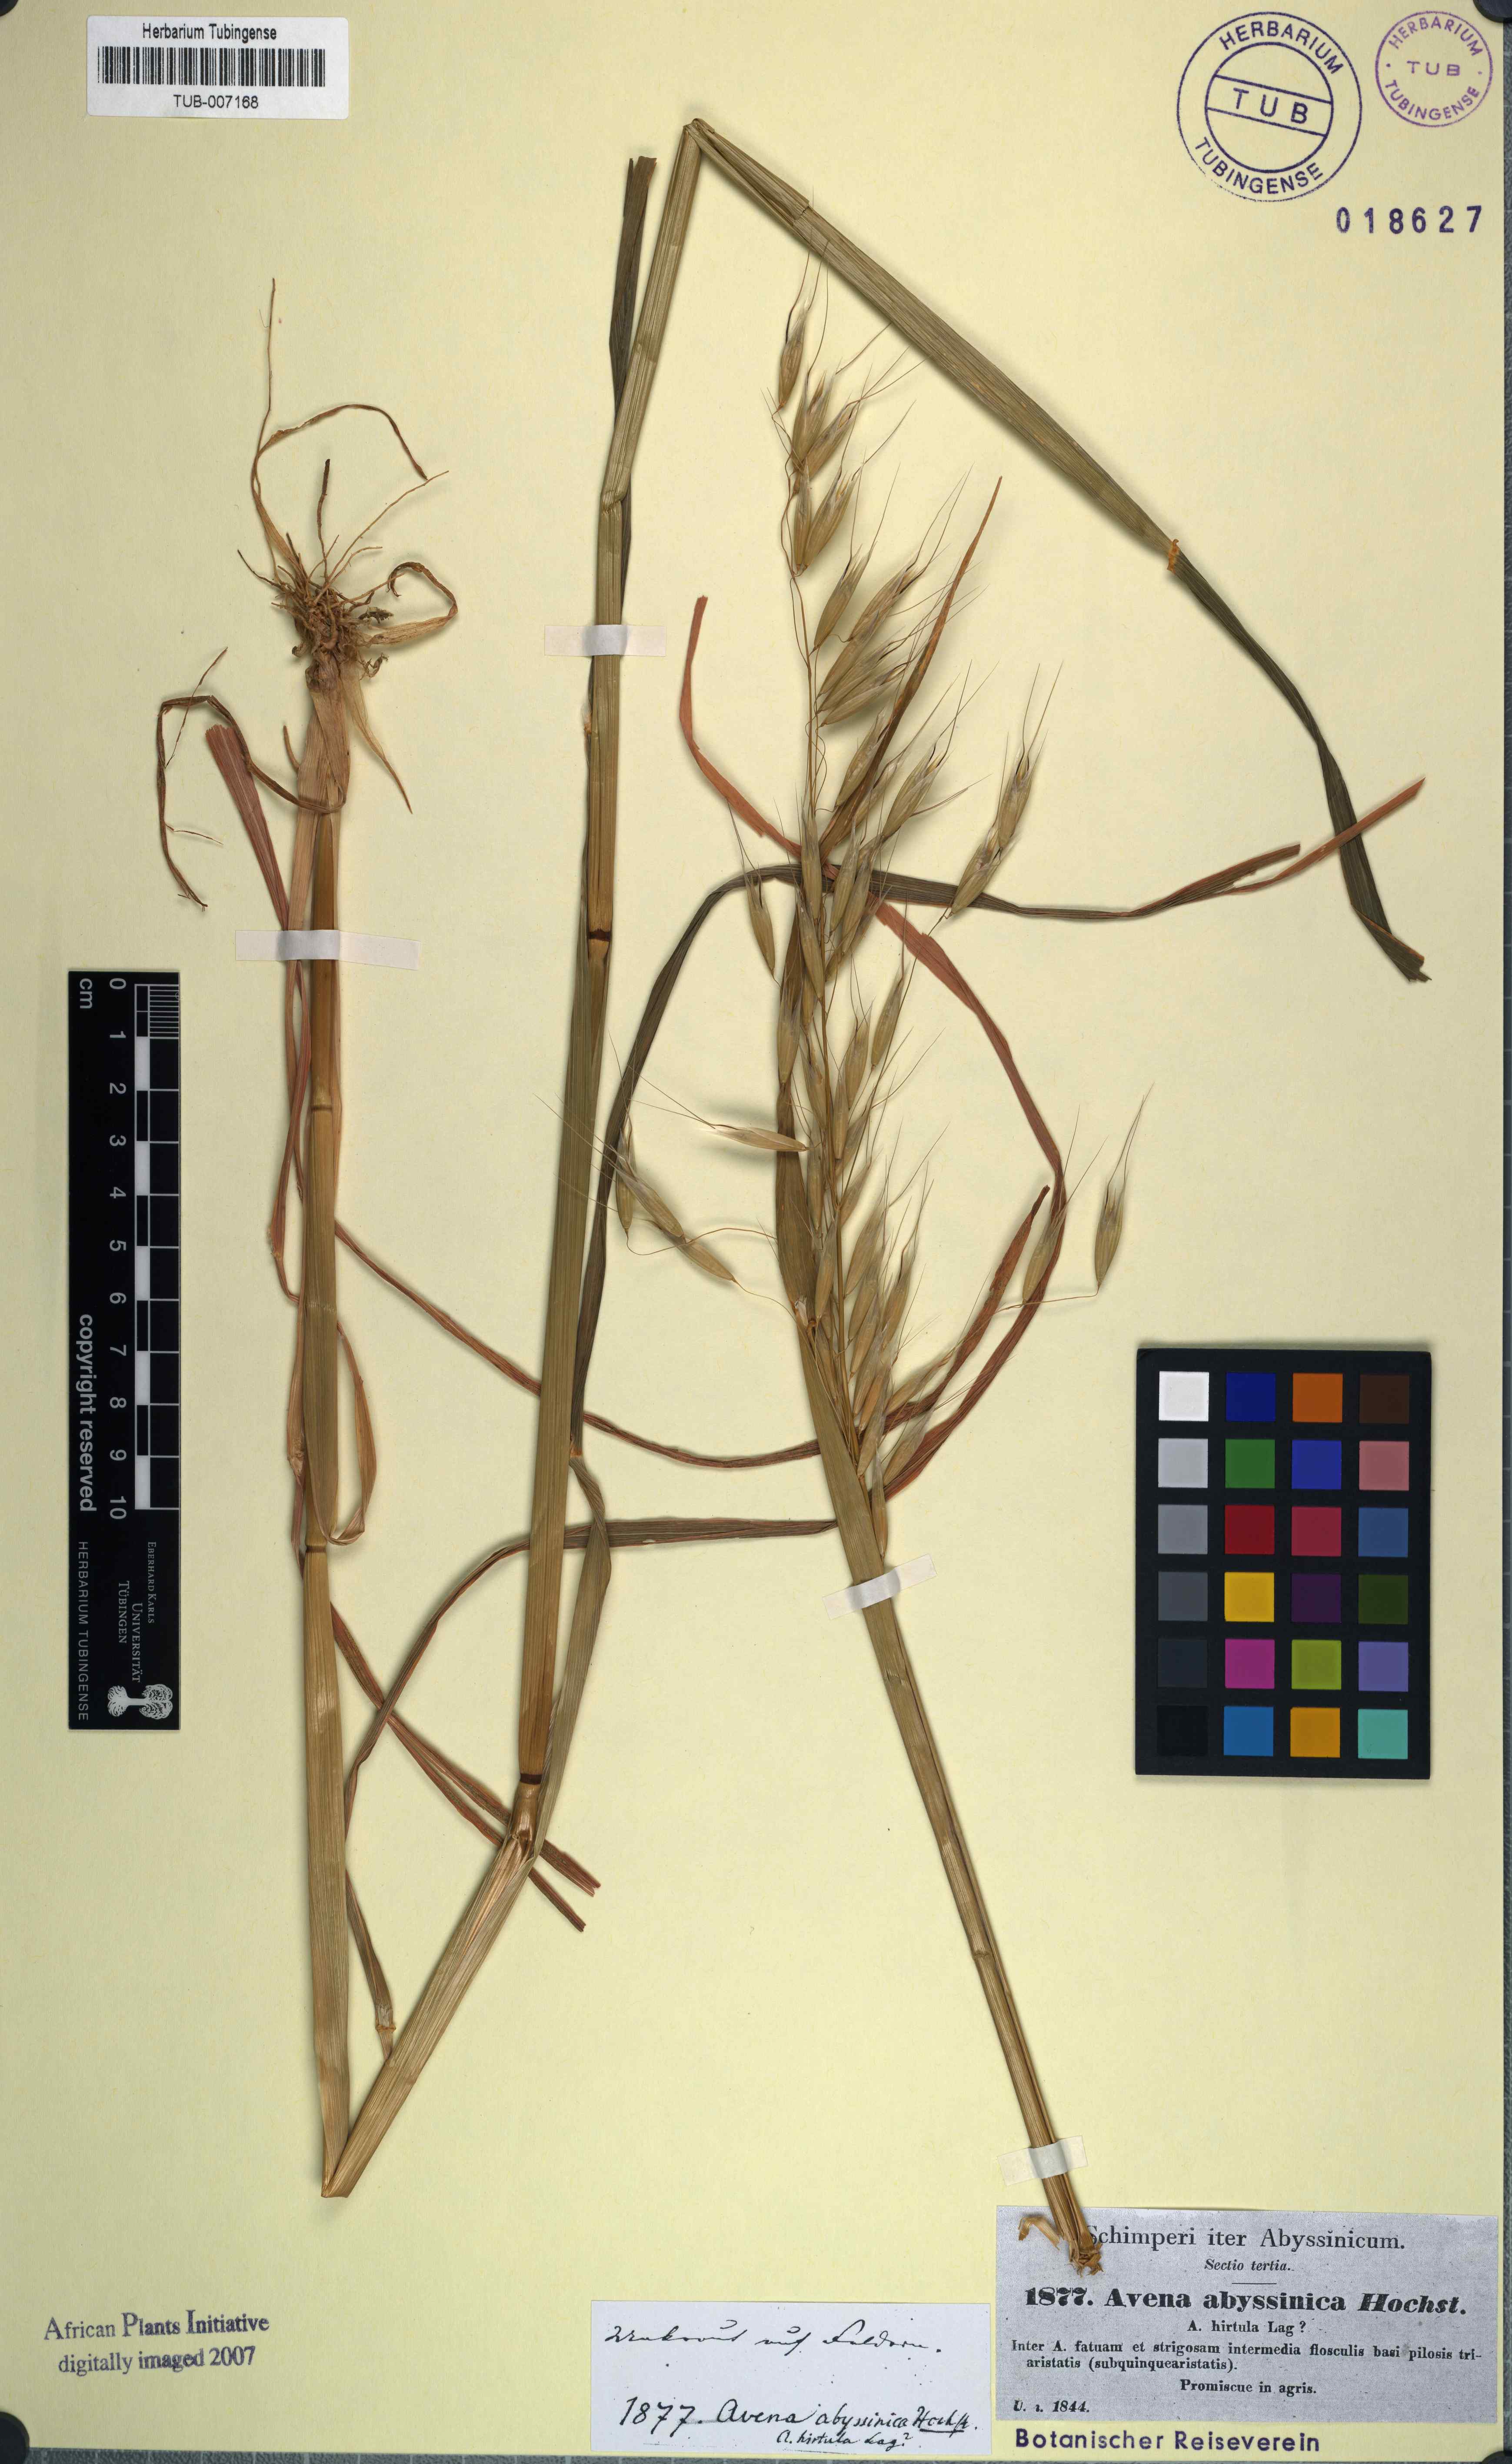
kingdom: Plantae
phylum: Tracheophyta
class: Liliopsida
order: Poales
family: Poaceae
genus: Avena
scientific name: Avena abyssinica
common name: Ethiopian oat
